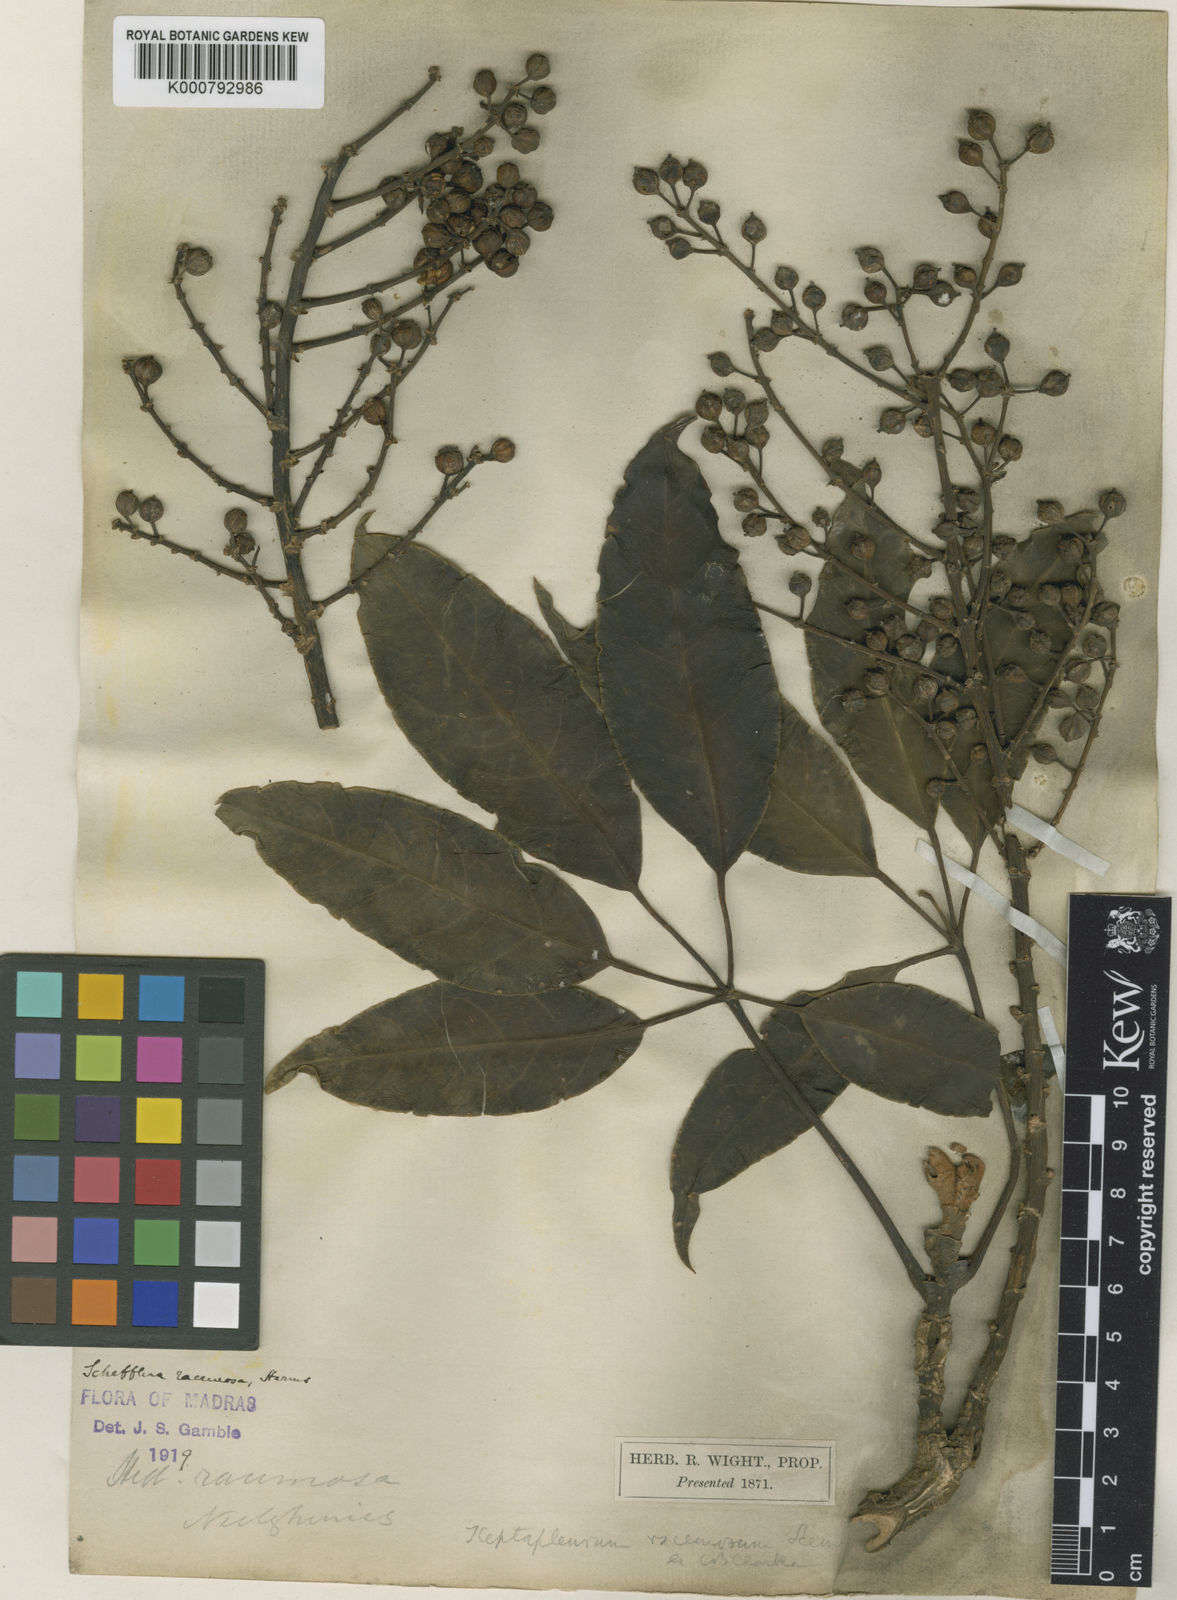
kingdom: Plantae
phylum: Tracheophyta
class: Magnoliopsida
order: Apiales
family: Araliaceae
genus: Heptapleurum
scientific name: Heptapleurum racemosum
